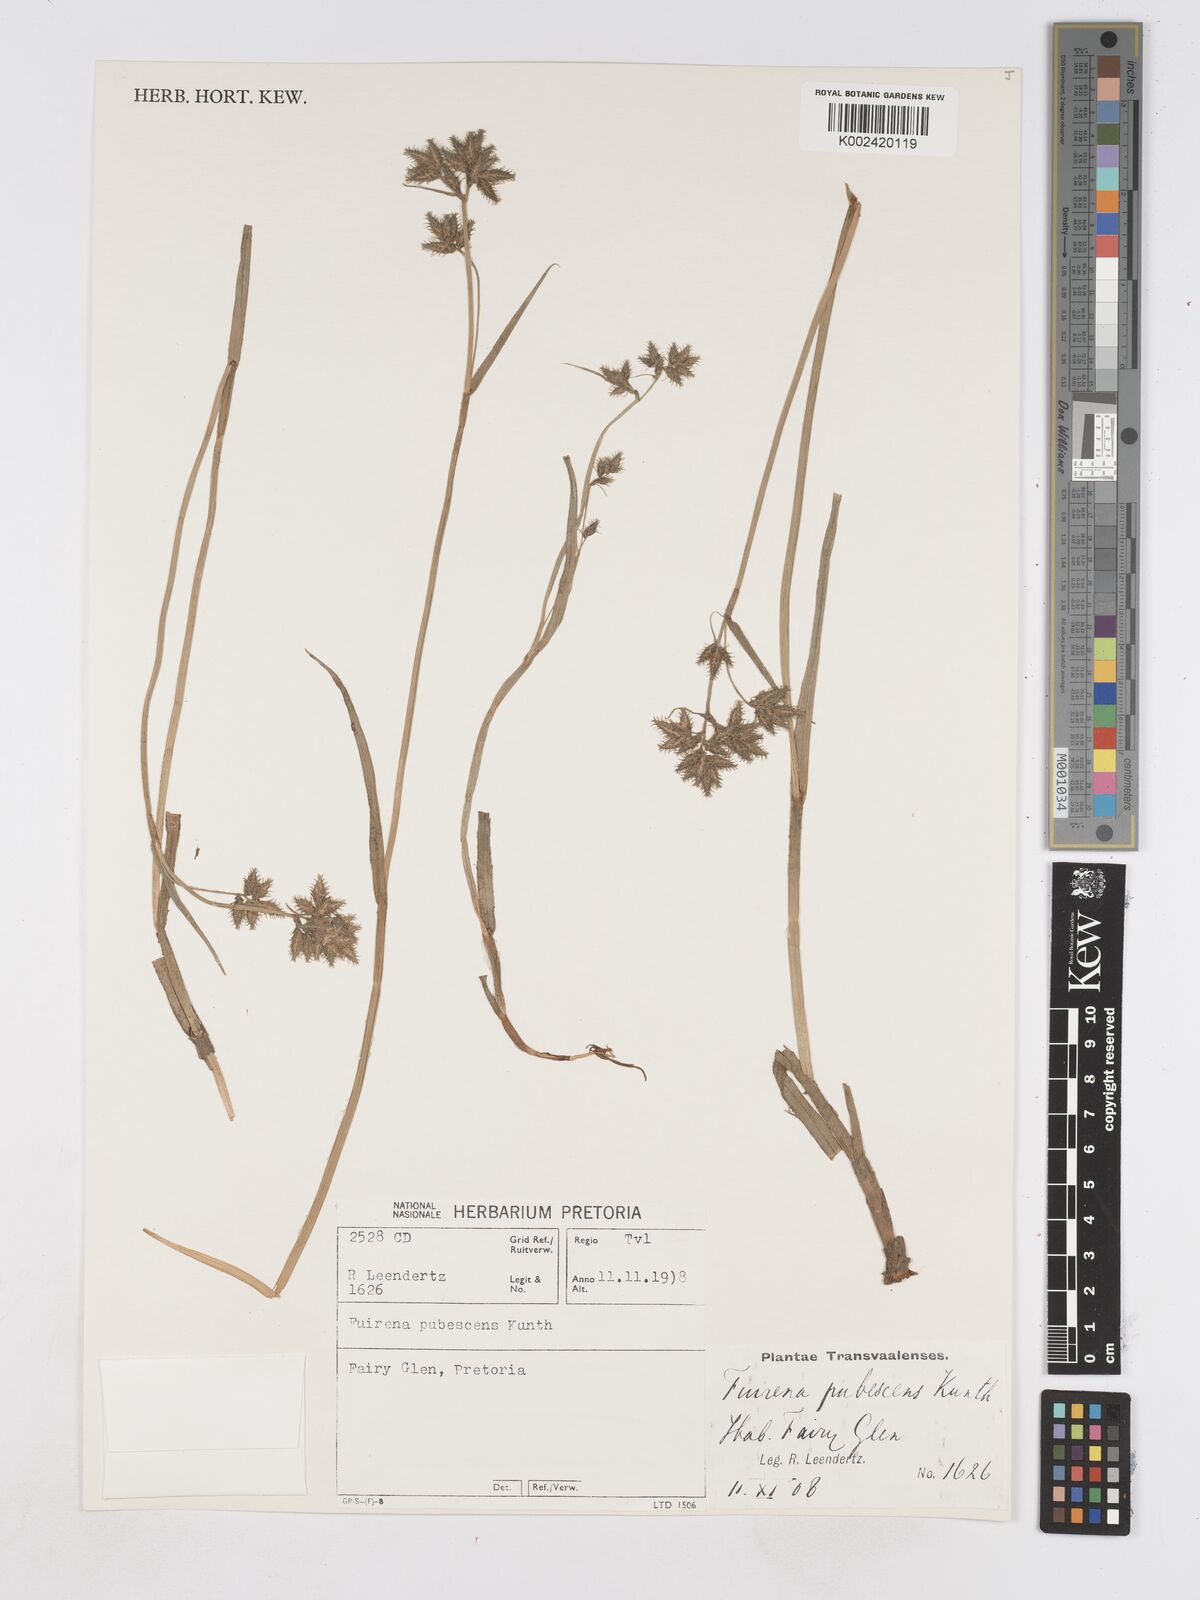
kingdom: Plantae
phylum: Tracheophyta
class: Liliopsida
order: Poales
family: Cyperaceae
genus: Fuirena
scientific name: Fuirena pubescens
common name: Hairy sedge
